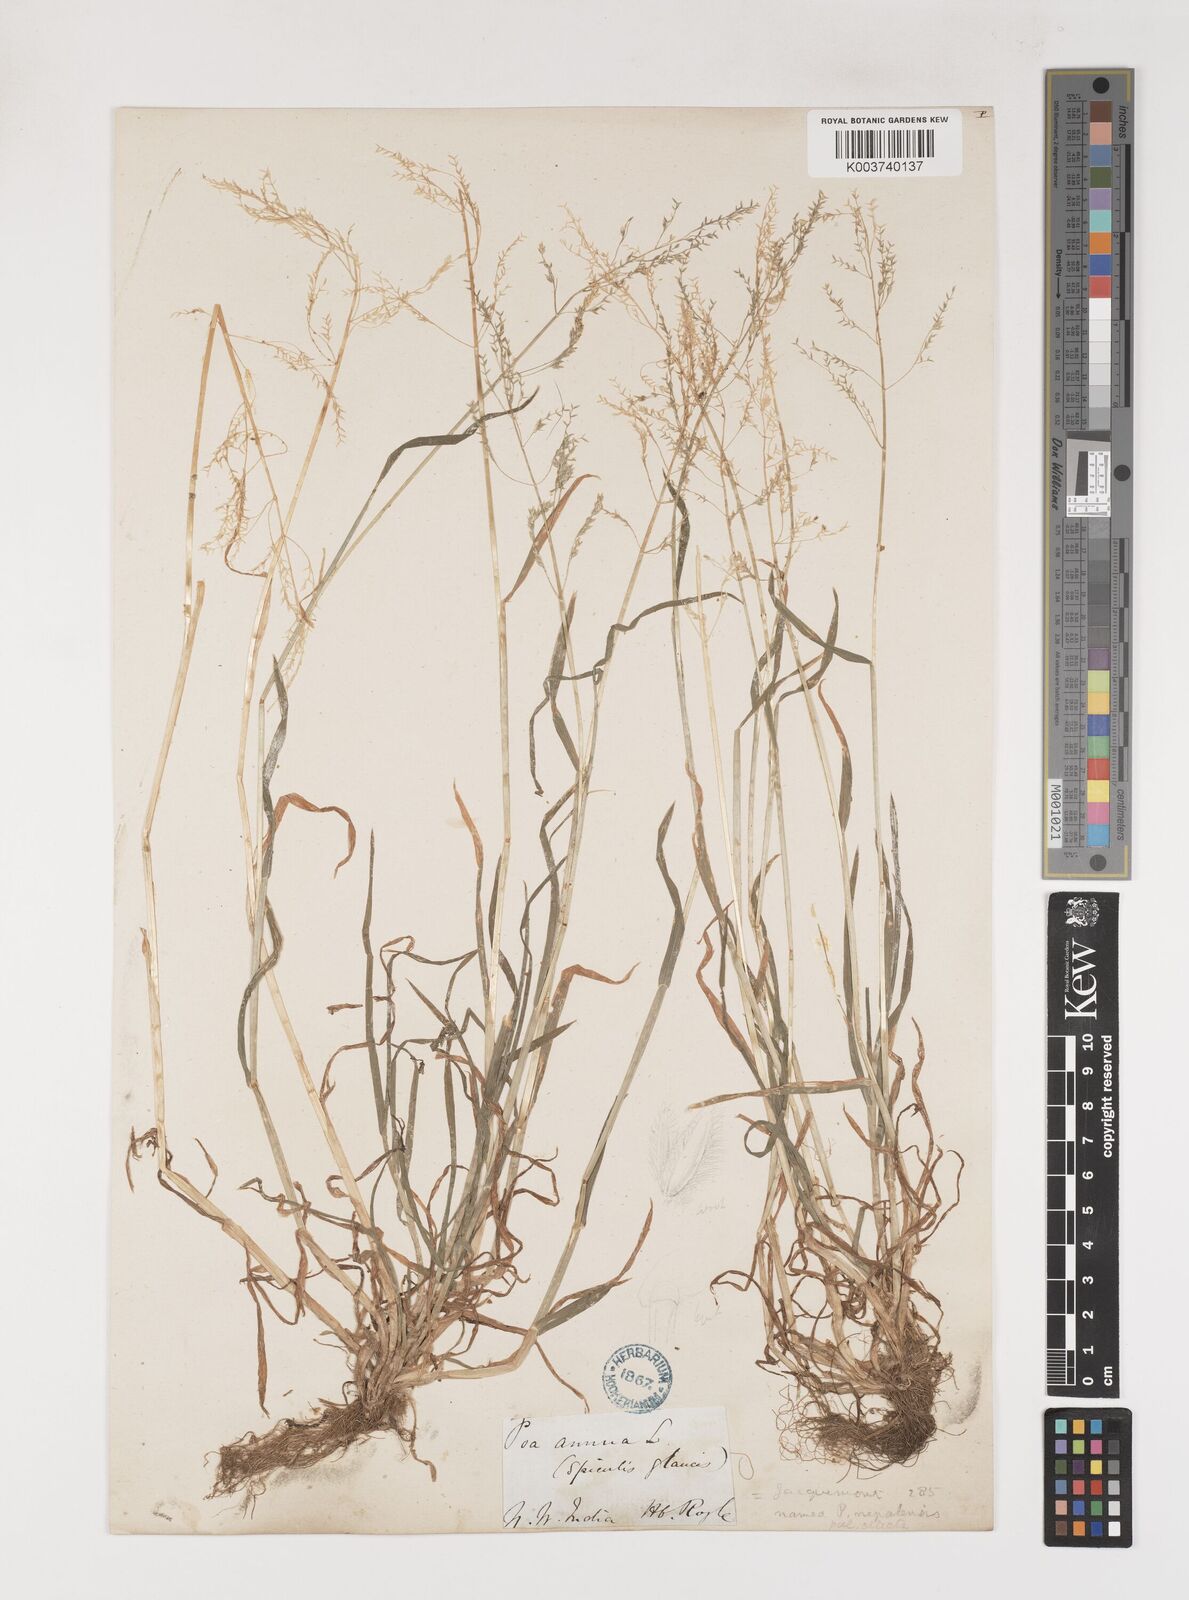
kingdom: Plantae
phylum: Tracheophyta
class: Liliopsida
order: Poales
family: Poaceae
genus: Poa
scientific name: Poa nepalensis
